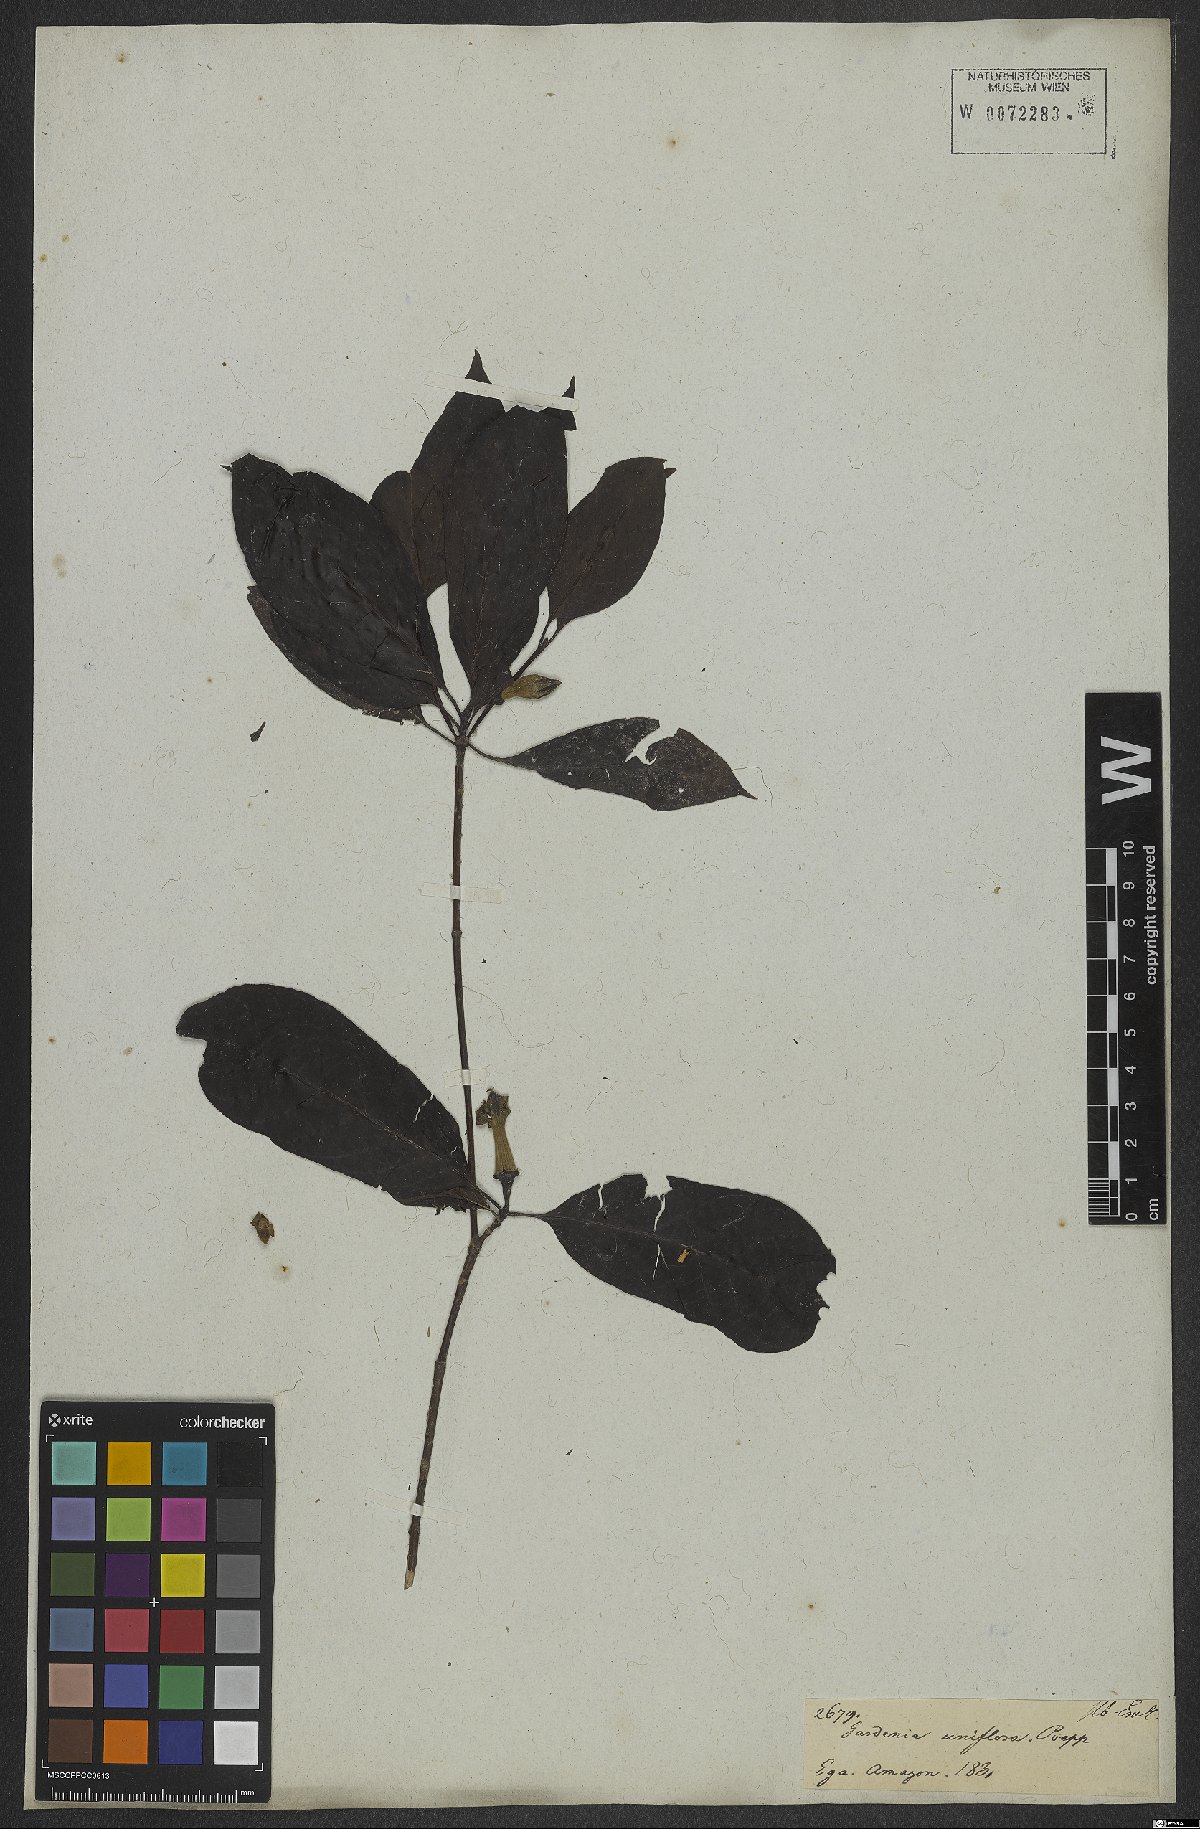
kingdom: Plantae
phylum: Tracheophyta
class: Magnoliopsida
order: Gentianales
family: Rubiaceae
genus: Gardenia
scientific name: Gardenia
